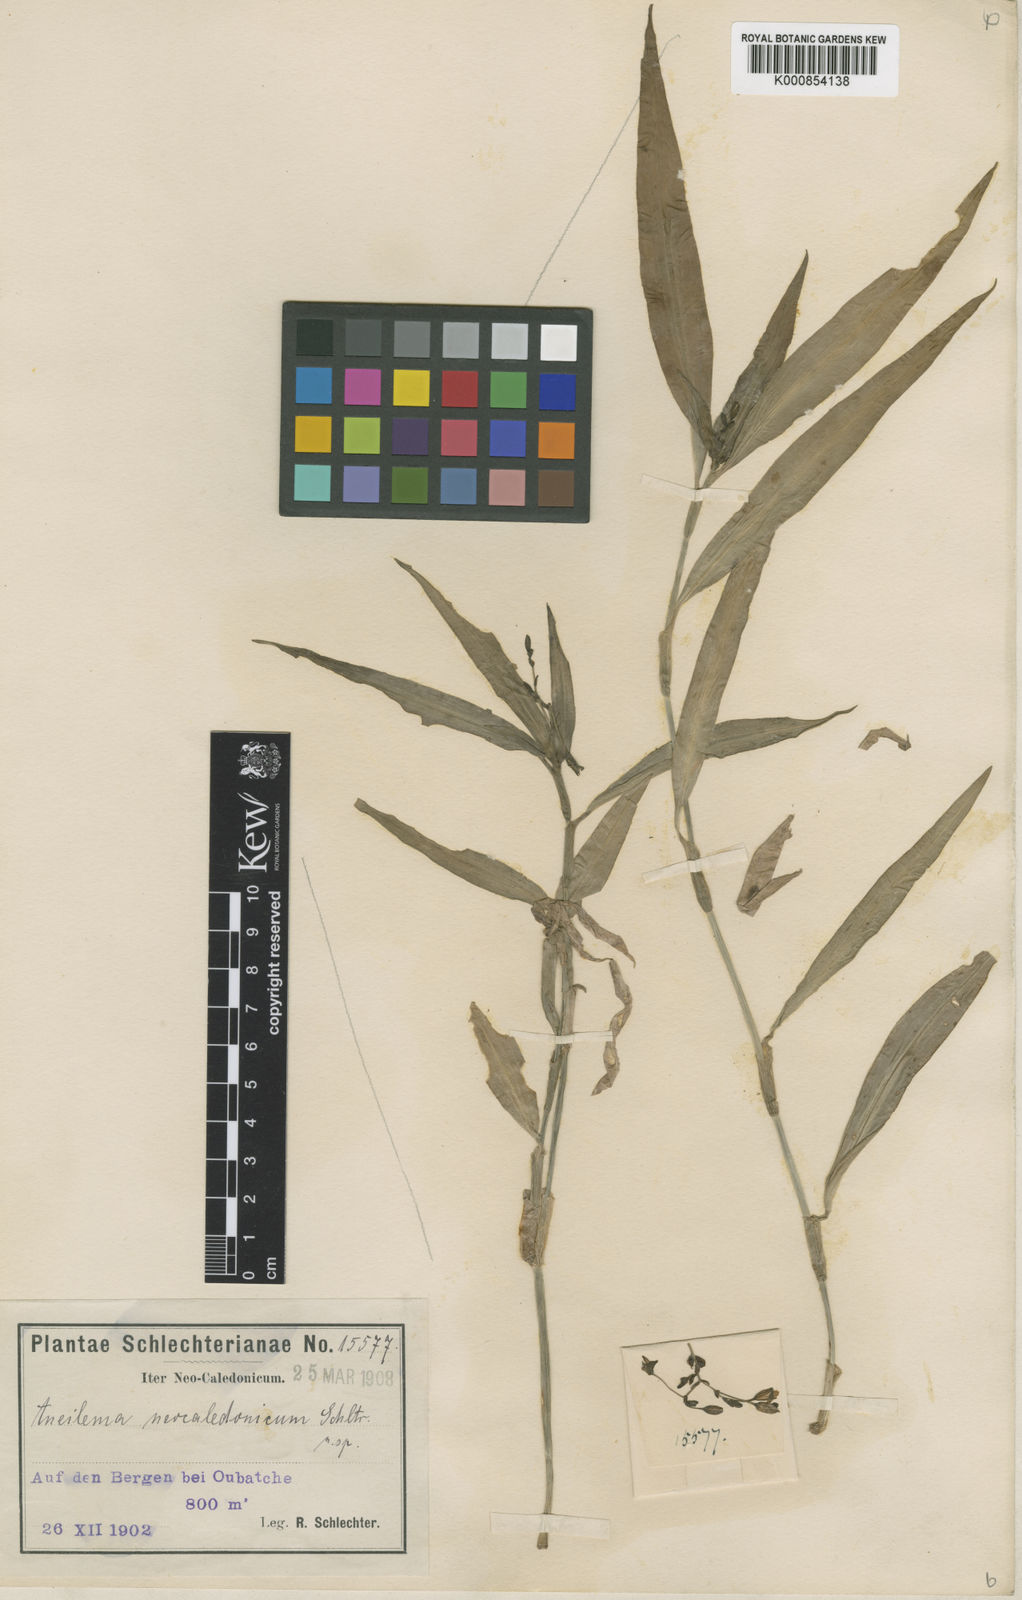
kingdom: Plantae
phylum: Tracheophyta
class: Liliopsida
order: Commelinales
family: Commelinaceae
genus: Aneilema
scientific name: Aneilema neocaledonicum
